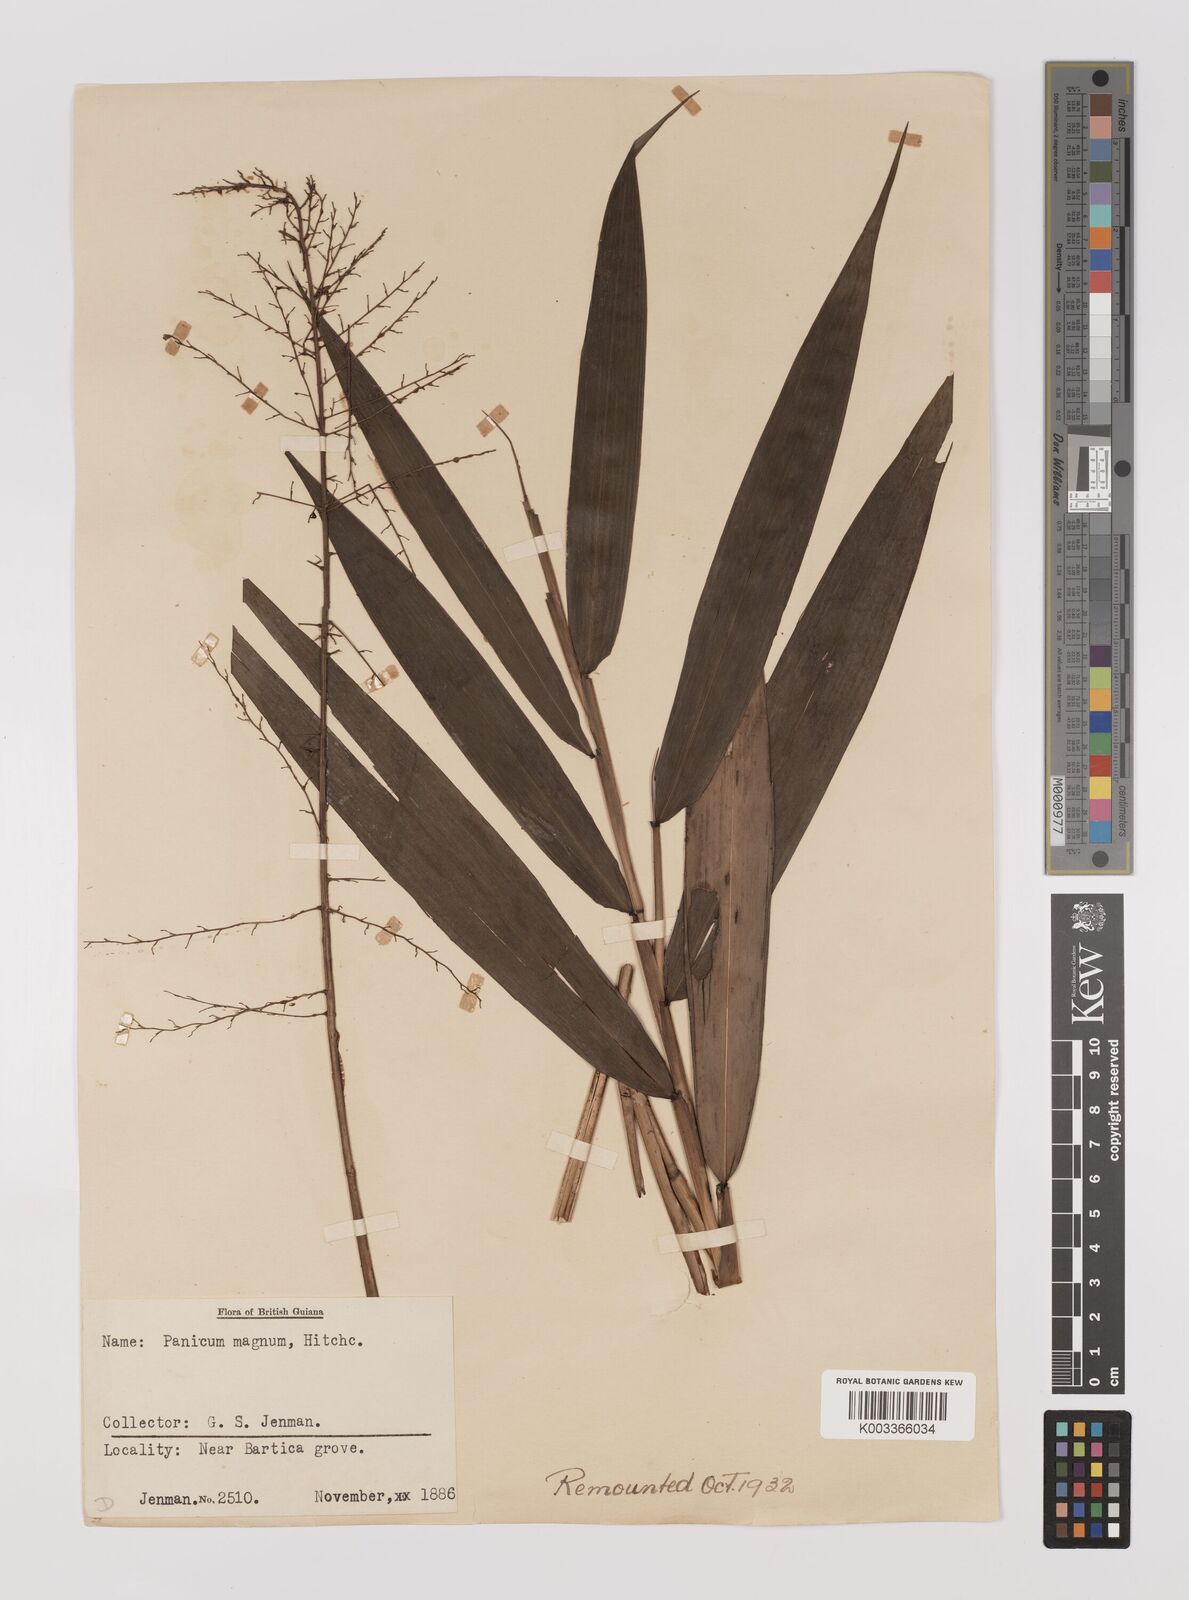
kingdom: Plantae
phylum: Tracheophyta
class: Liliopsida
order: Poales
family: Poaceae
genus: Ichnanthus
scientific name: Ichnanthus breviscrobs
